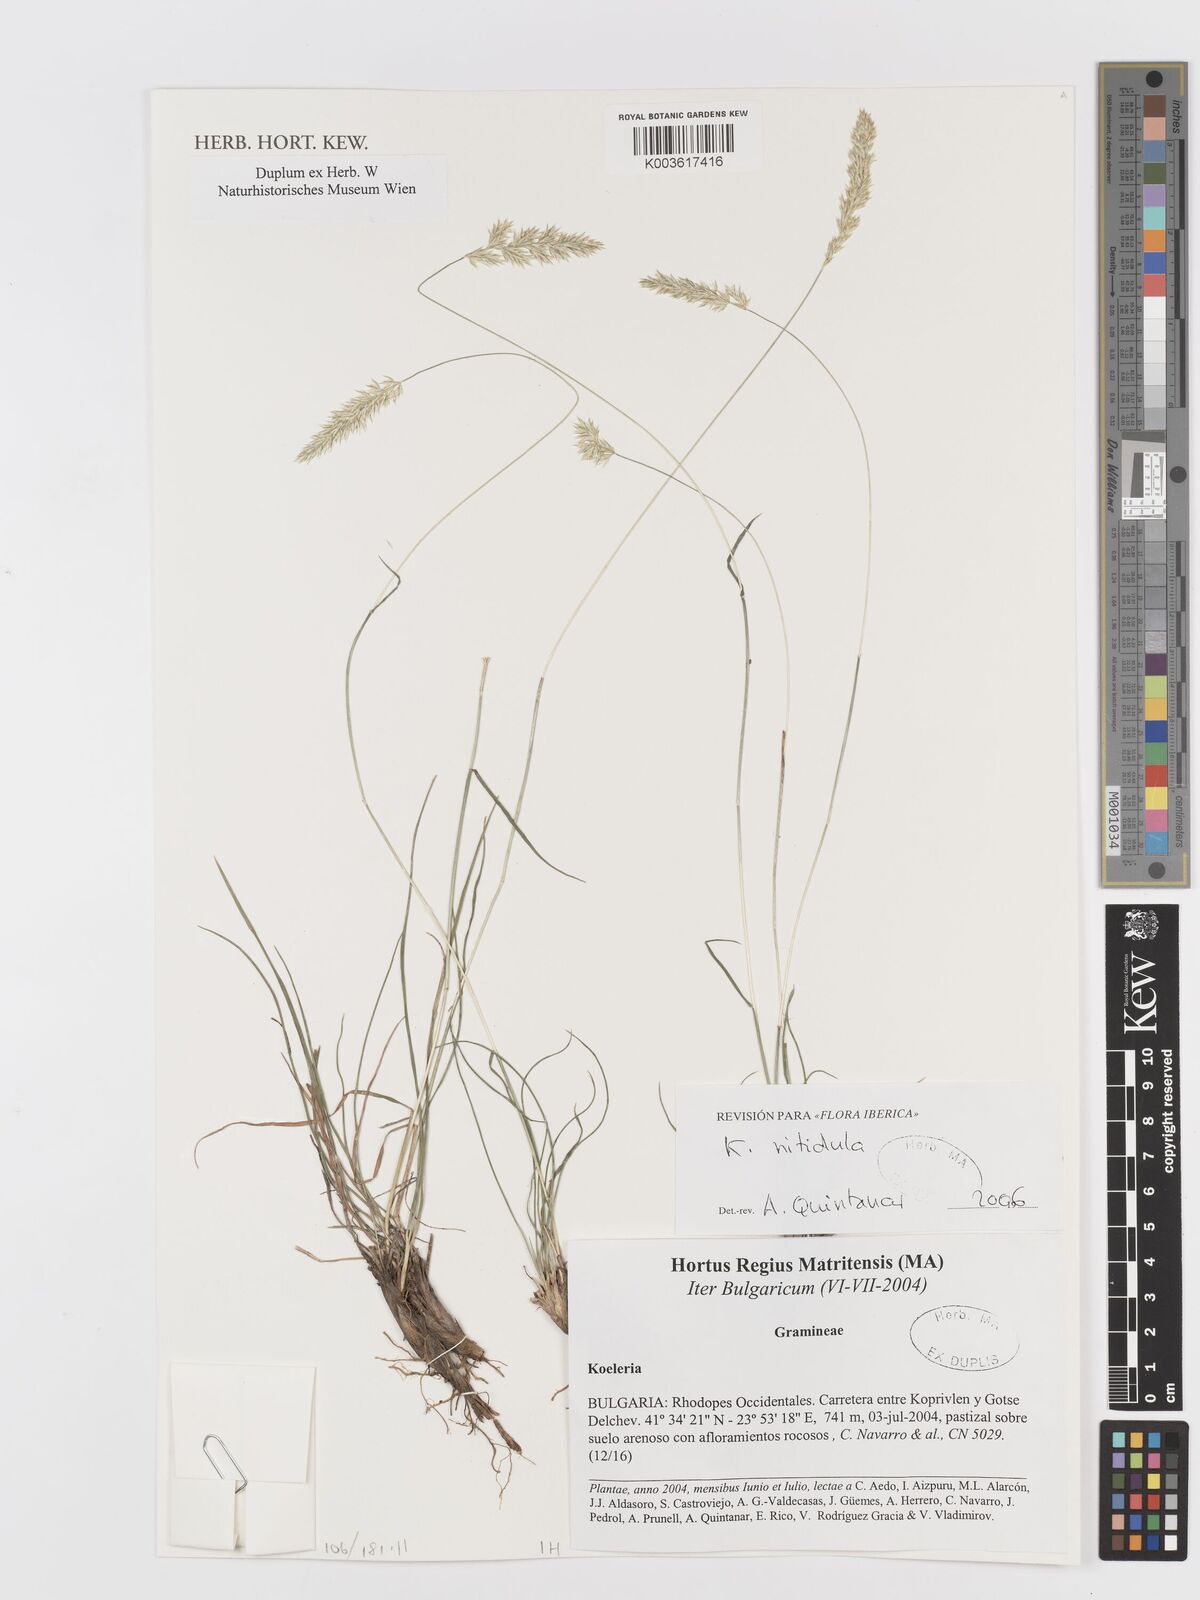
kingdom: Plantae
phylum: Tracheophyta
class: Liliopsida
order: Poales
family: Poaceae
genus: Koeleria
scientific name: Koeleria nitidula
